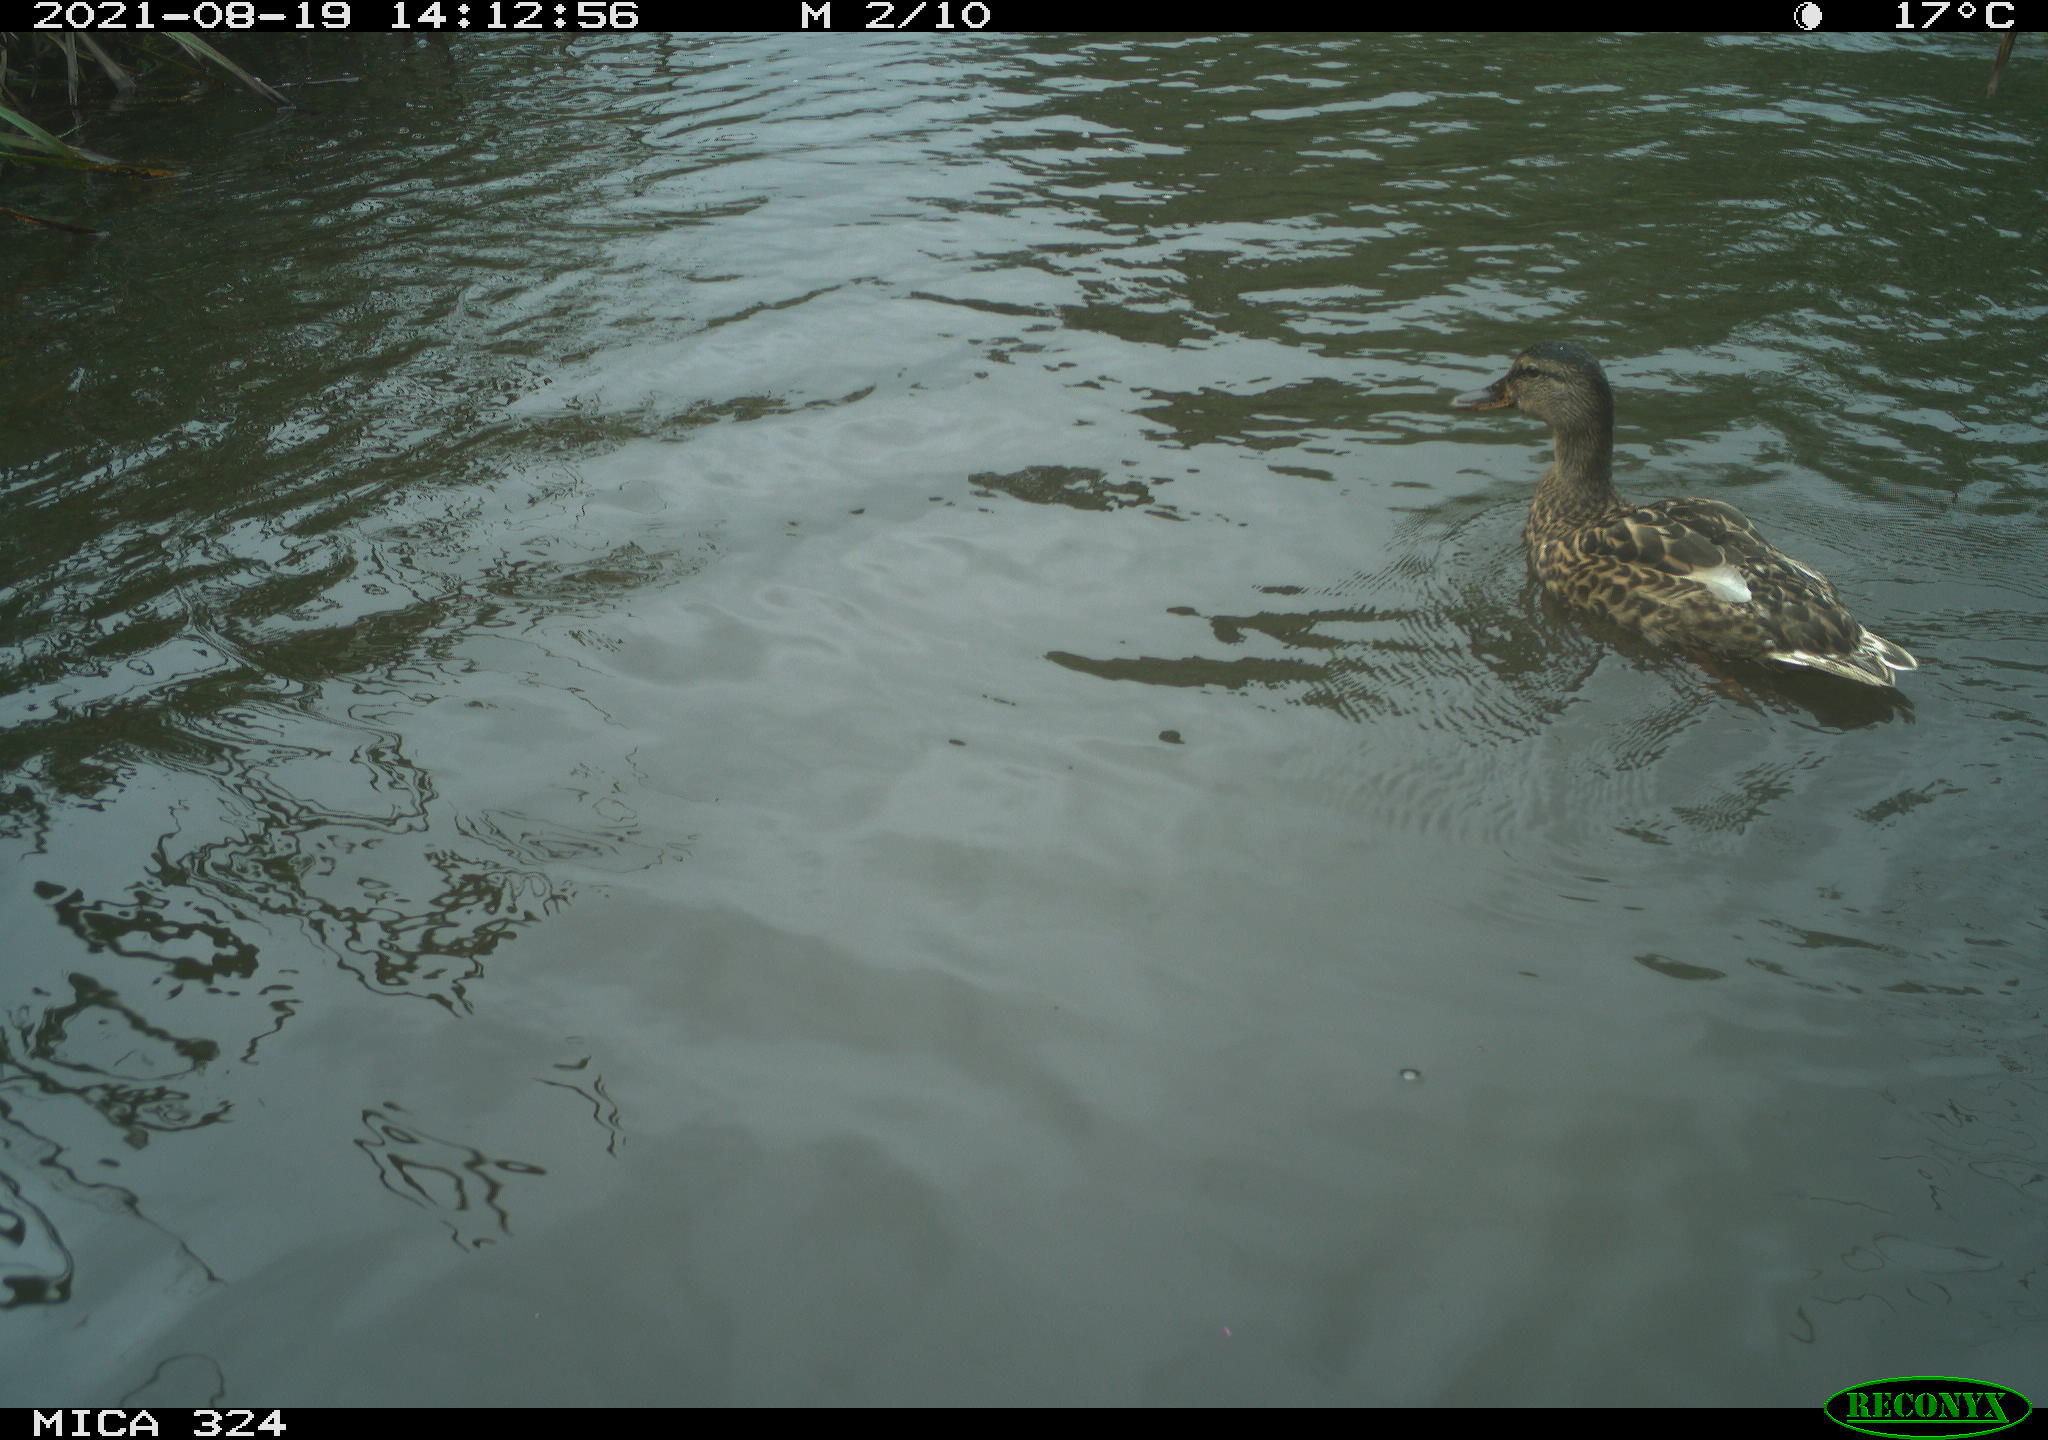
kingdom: Animalia
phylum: Chordata
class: Aves
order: Anseriformes
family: Anatidae
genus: Anas
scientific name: Anas platyrhynchos
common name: Mallard
